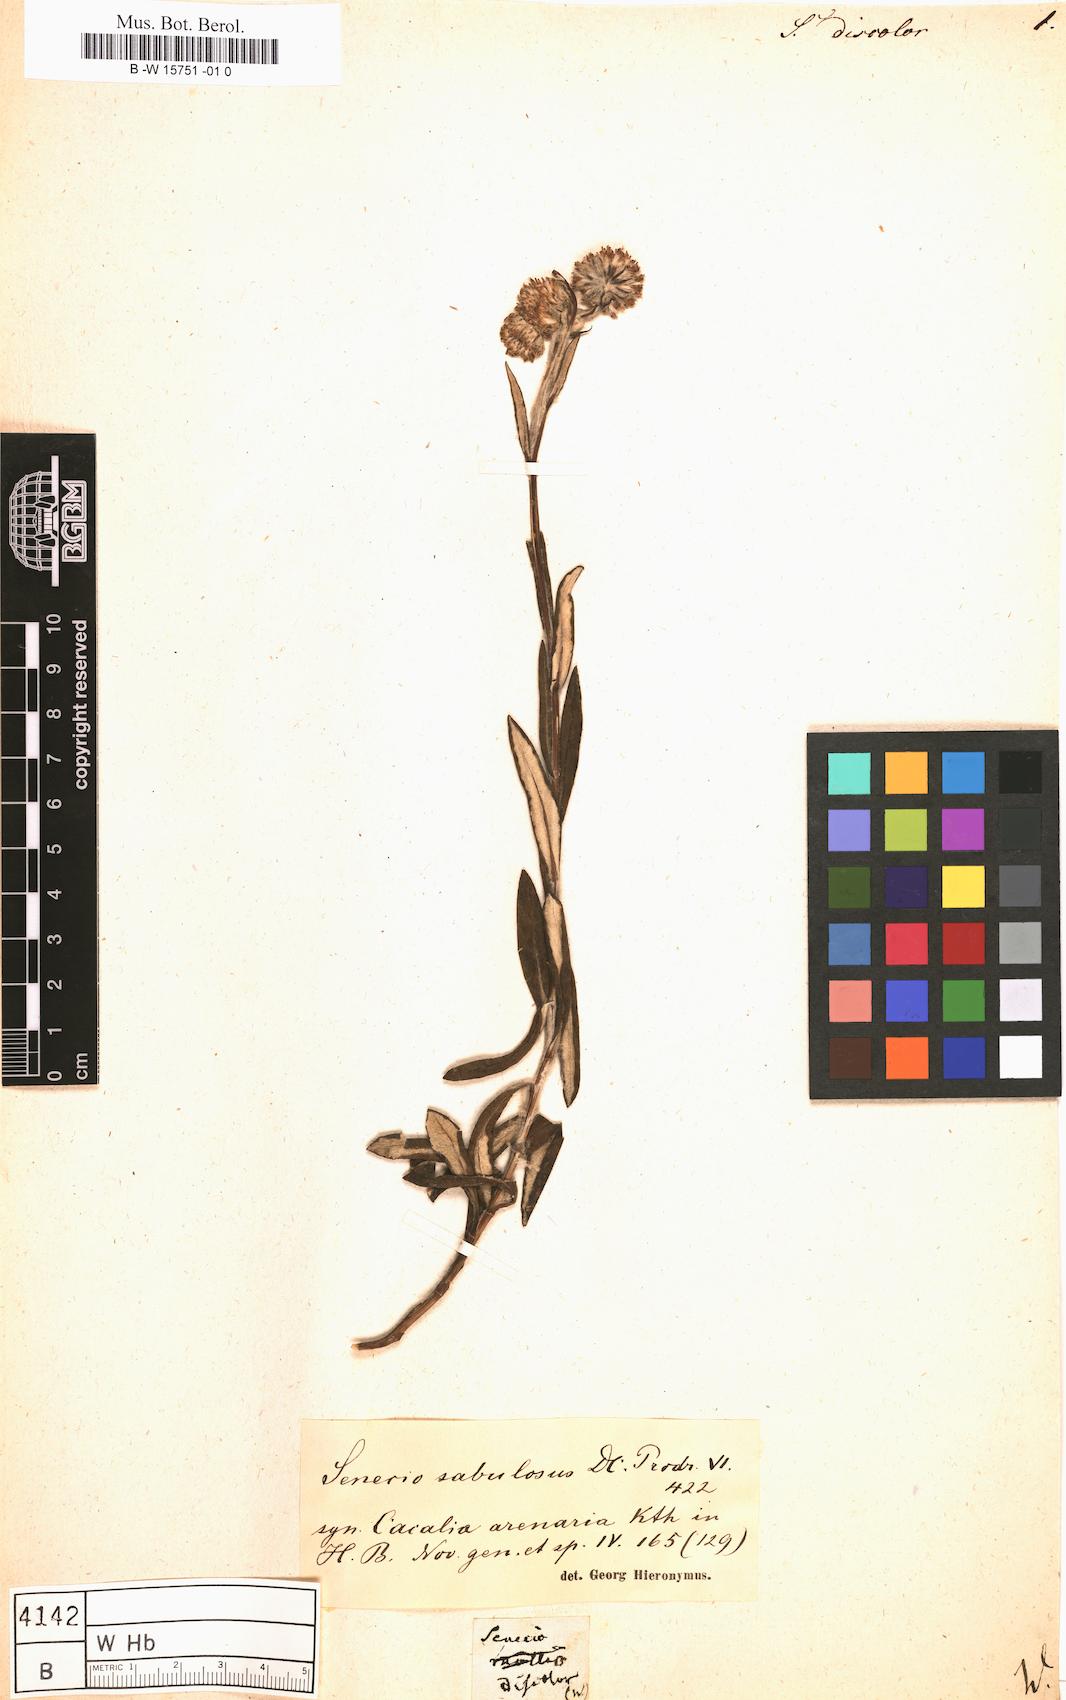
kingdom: Plantae
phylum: Tracheophyta
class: Magnoliopsida
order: Asterales
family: Asteraceae
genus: Senecio
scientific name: Senecio discolor
